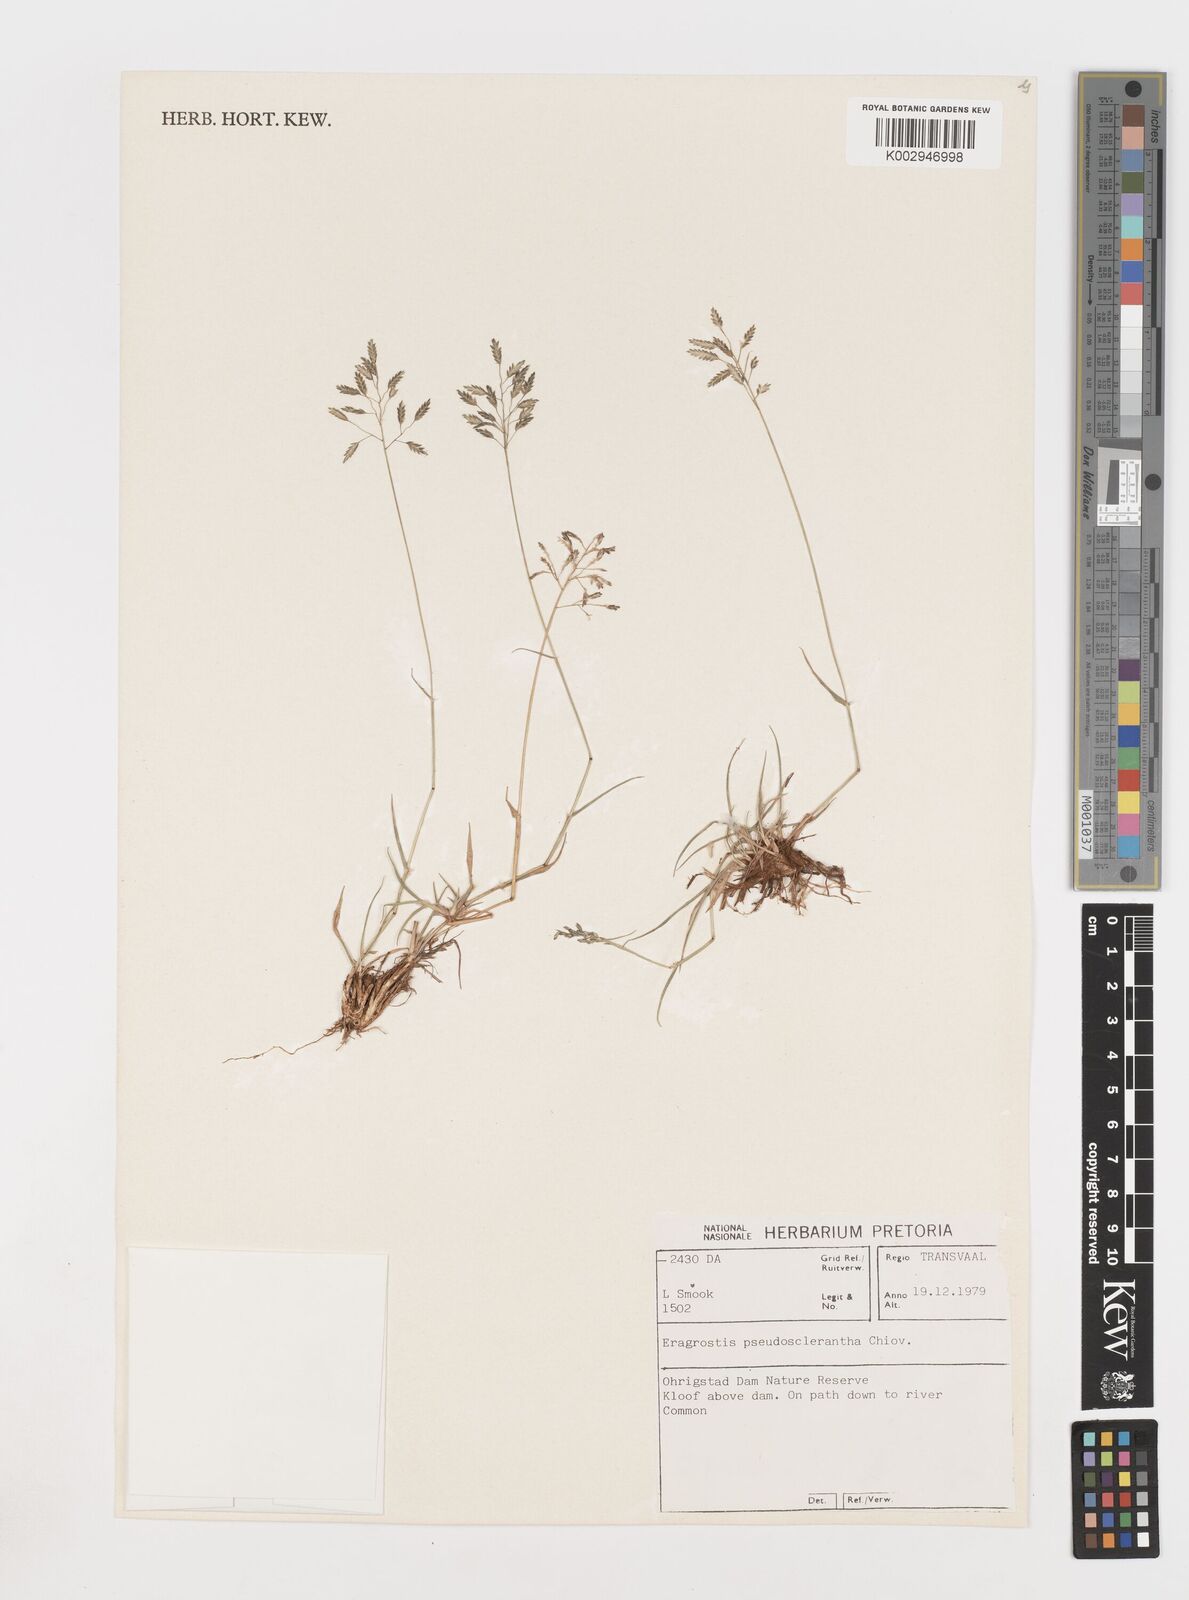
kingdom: Plantae
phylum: Tracheophyta
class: Liliopsida
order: Poales
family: Poaceae
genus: Eragrostis
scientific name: Eragrostis patentipilosa
